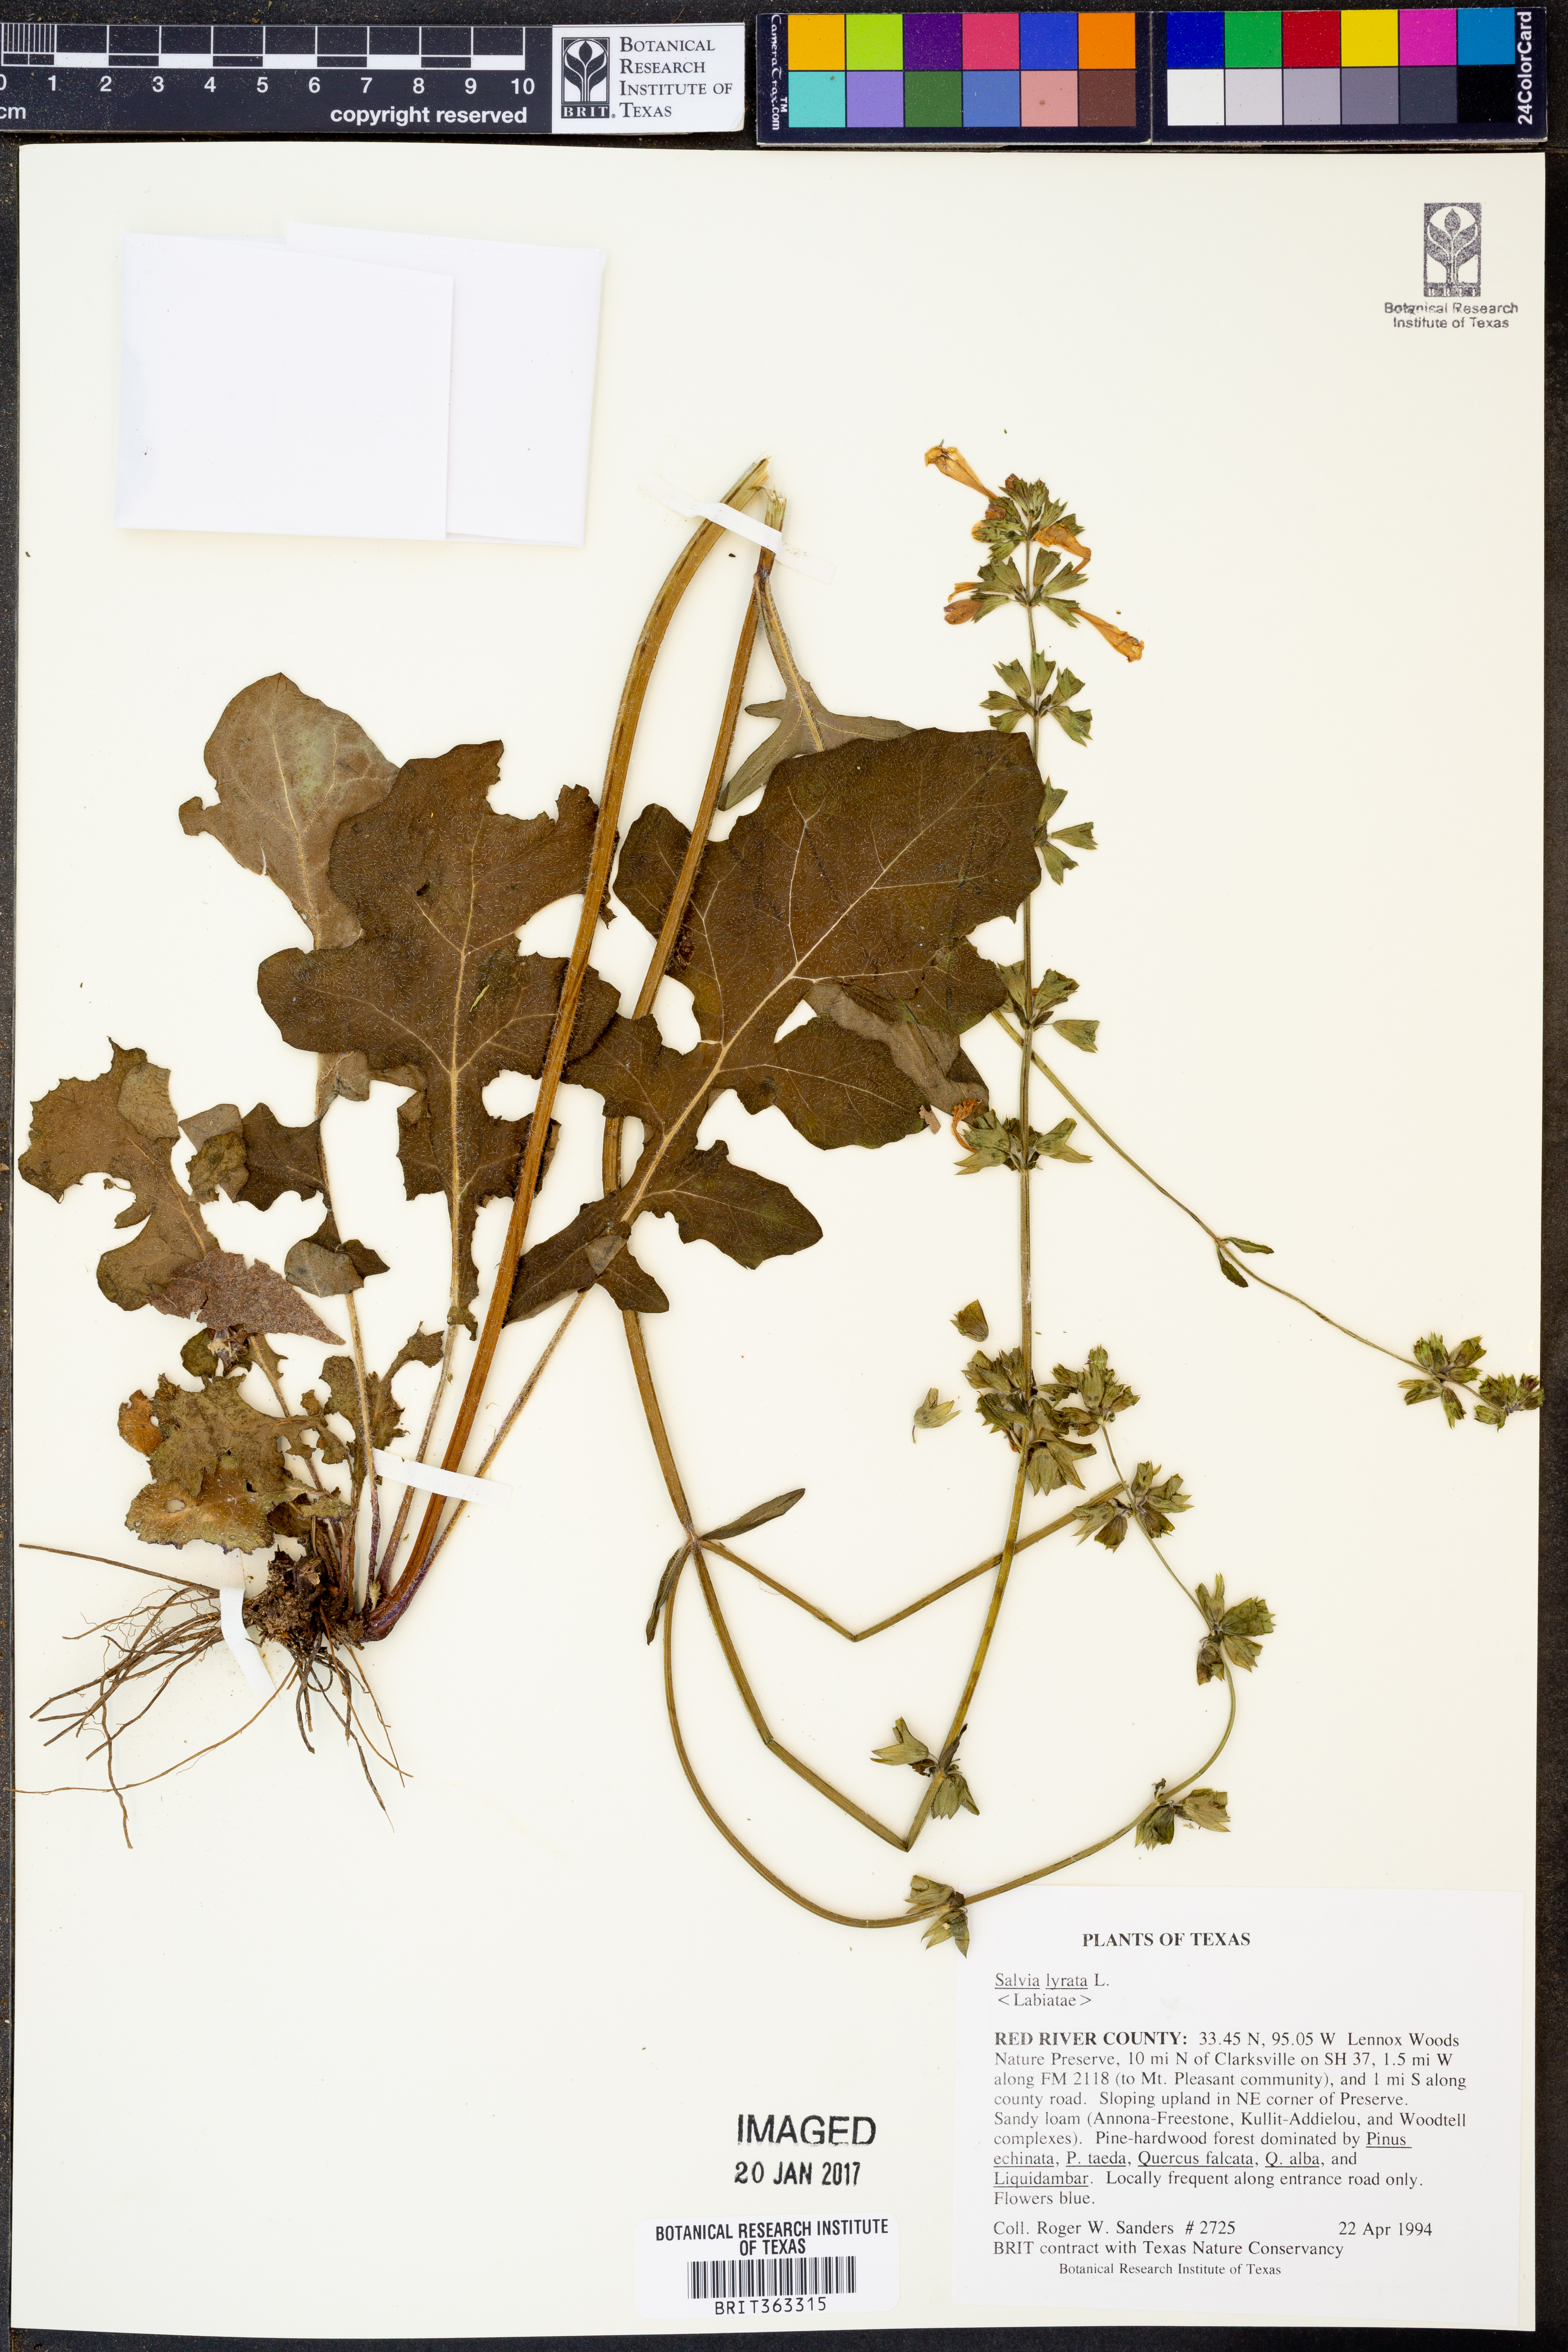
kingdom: Plantae
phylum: Tracheophyta
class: Magnoliopsida
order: Lamiales
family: Lamiaceae
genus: Salvia
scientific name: Salvia lyrata
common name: Cancerweed
